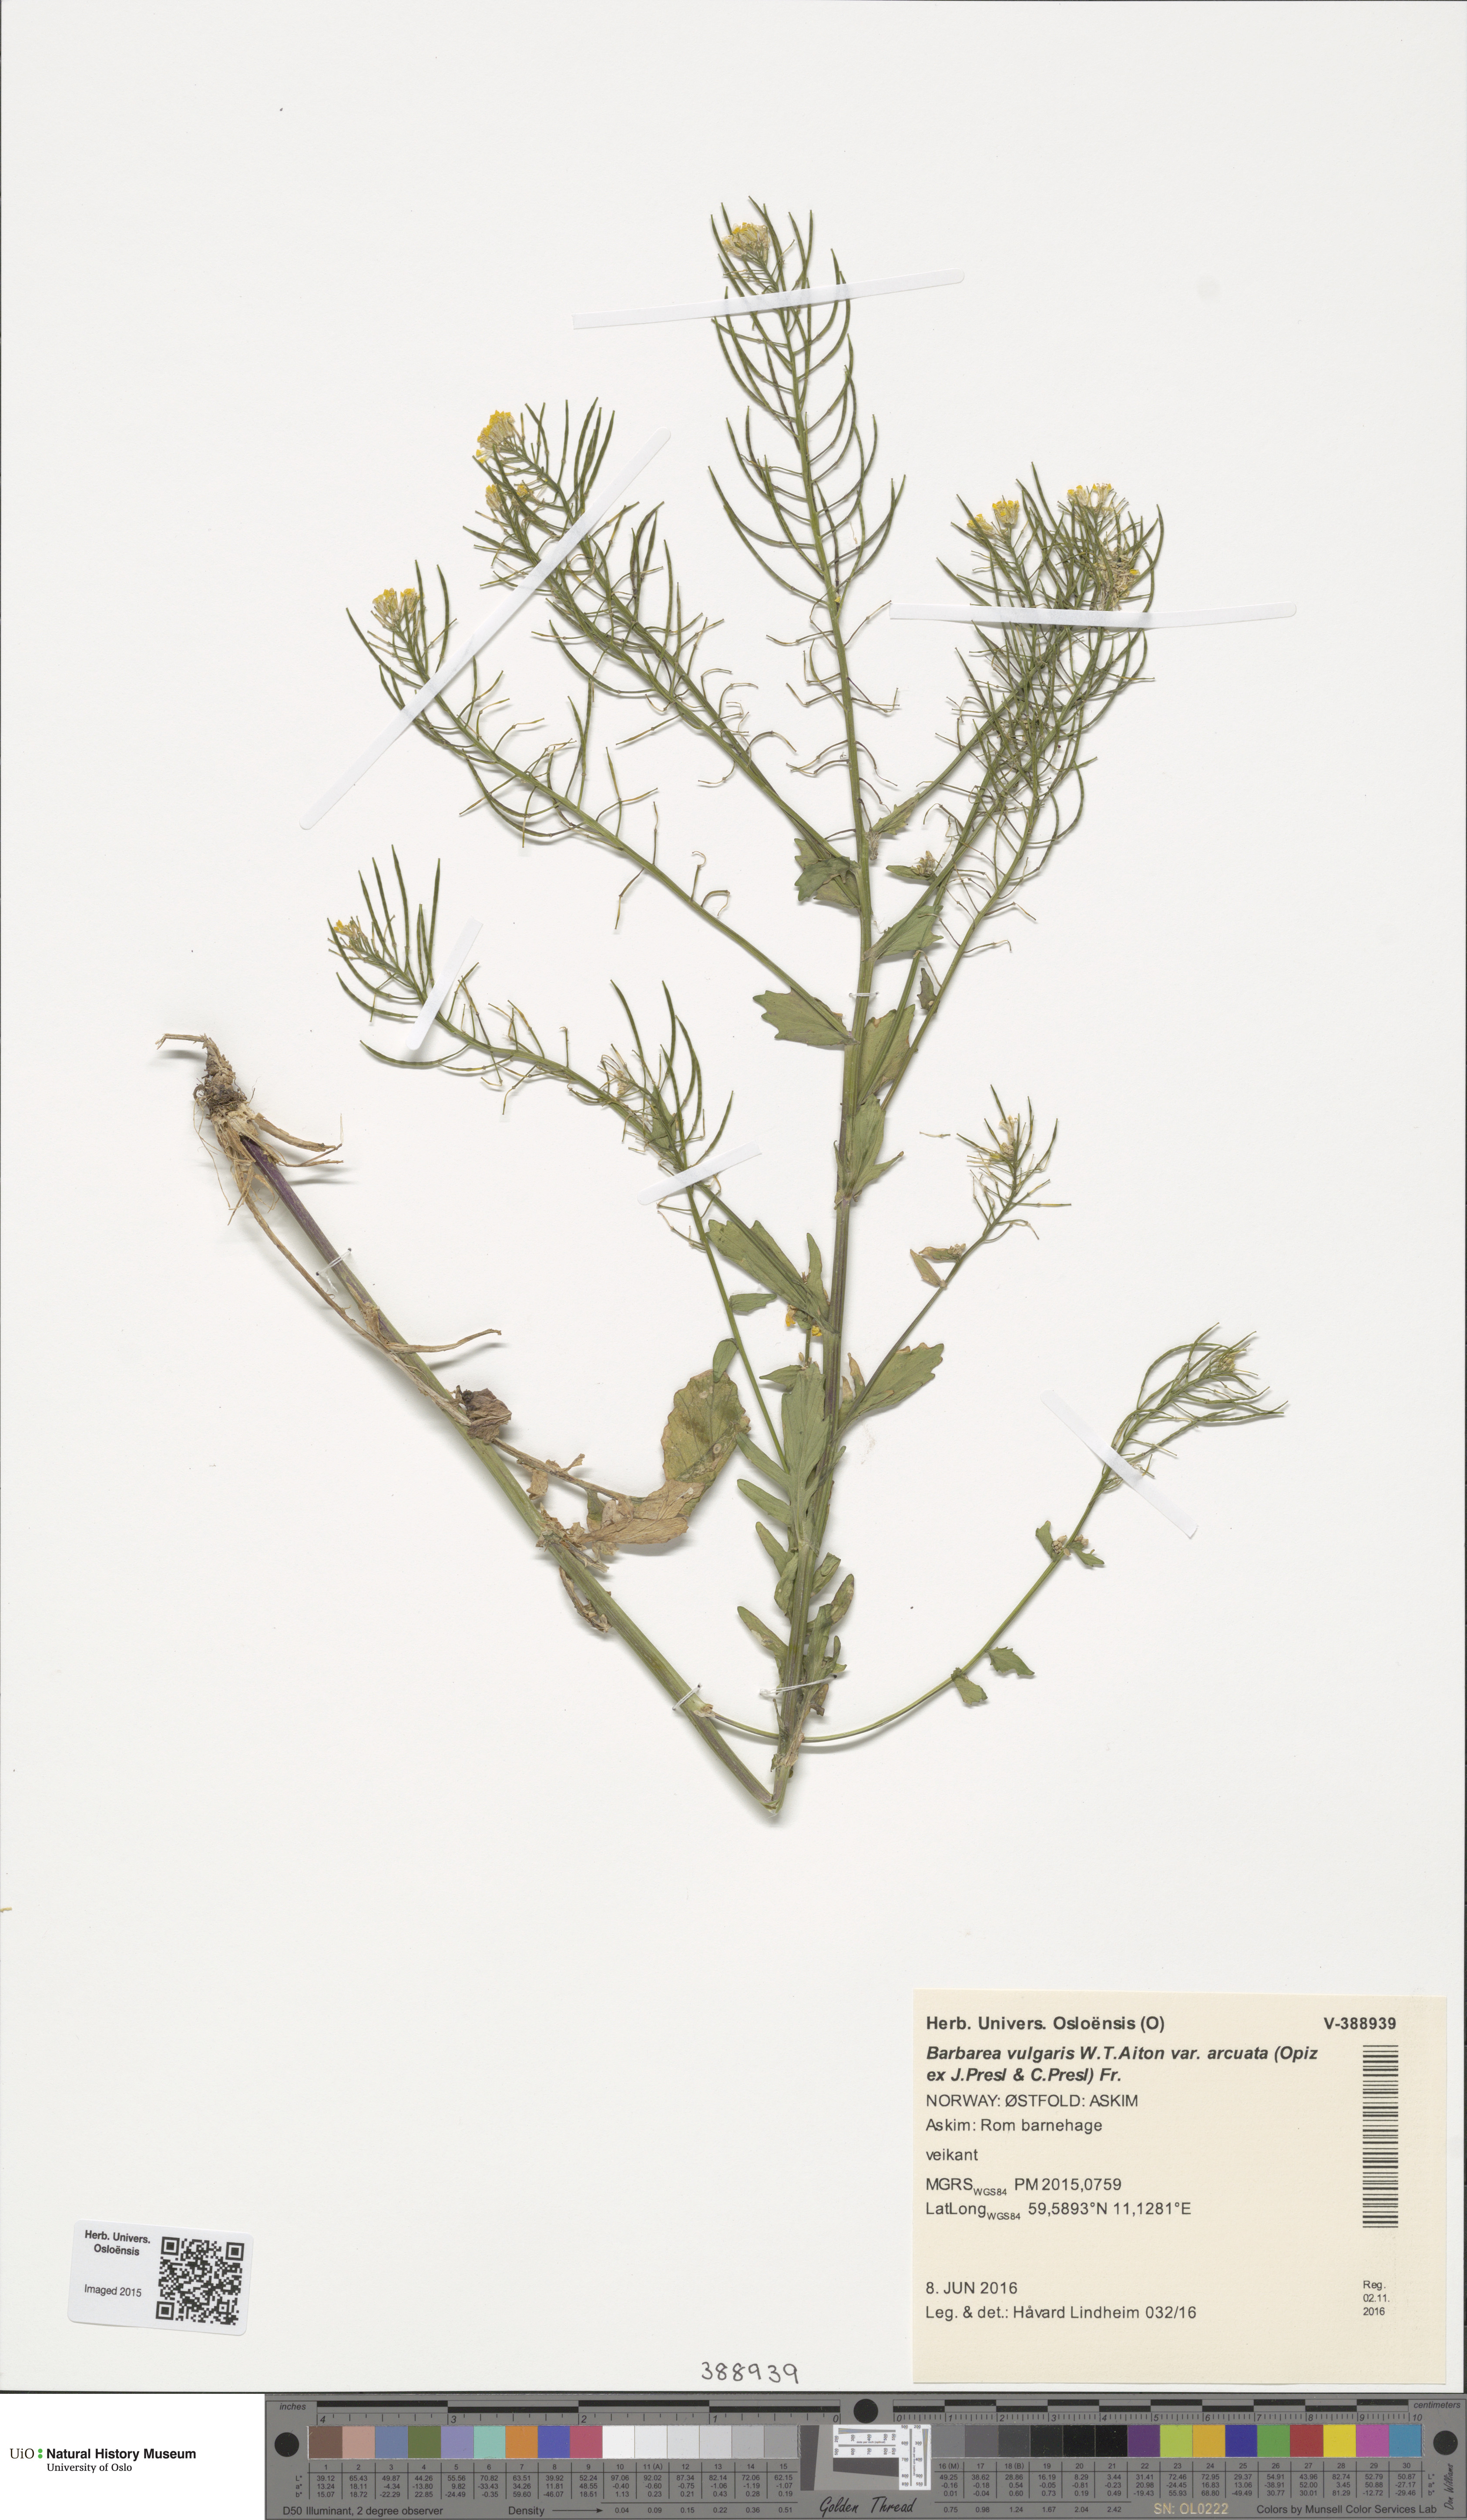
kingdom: Plantae
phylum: Tracheophyta
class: Magnoliopsida
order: Brassicales
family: Brassicaceae
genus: Barbarea
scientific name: Barbarea vulgaris
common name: Cressy-greens
